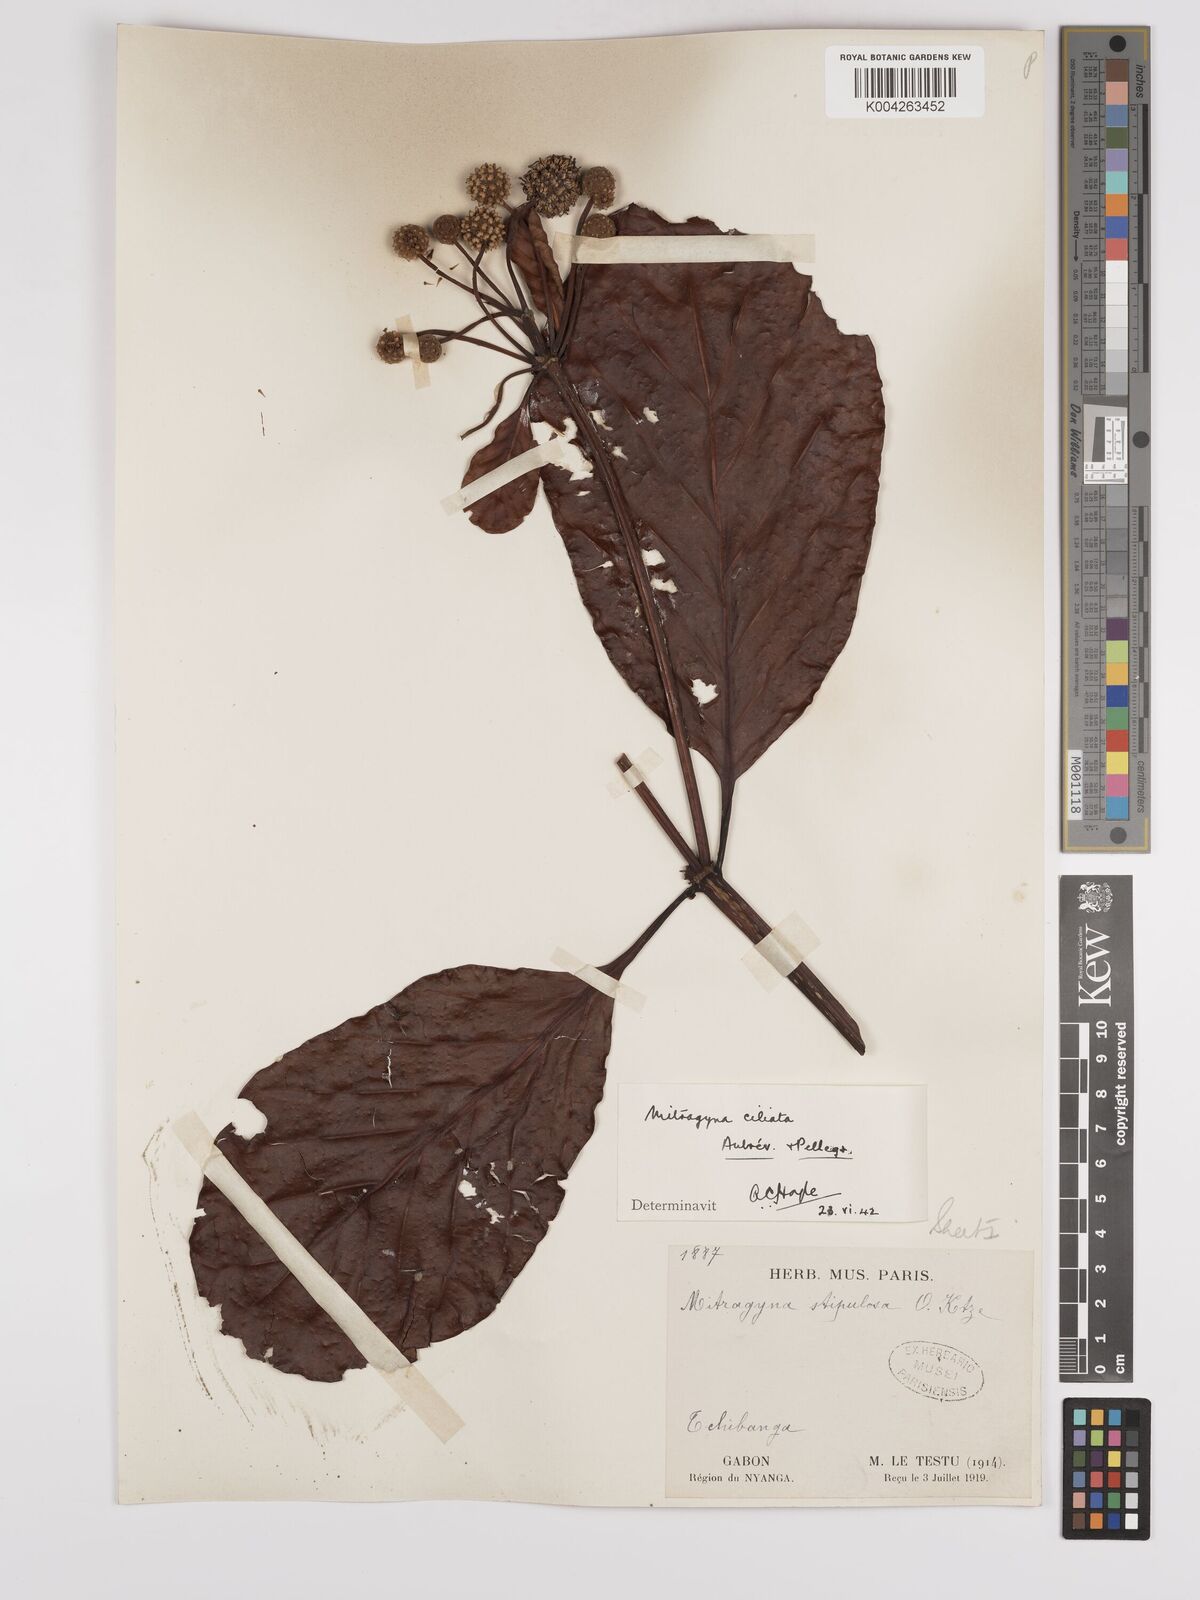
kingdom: Plantae
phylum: Tracheophyta
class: Magnoliopsida
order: Gentianales
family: Rubiaceae
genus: Mitragyna
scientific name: Mitragyna stipulosa
